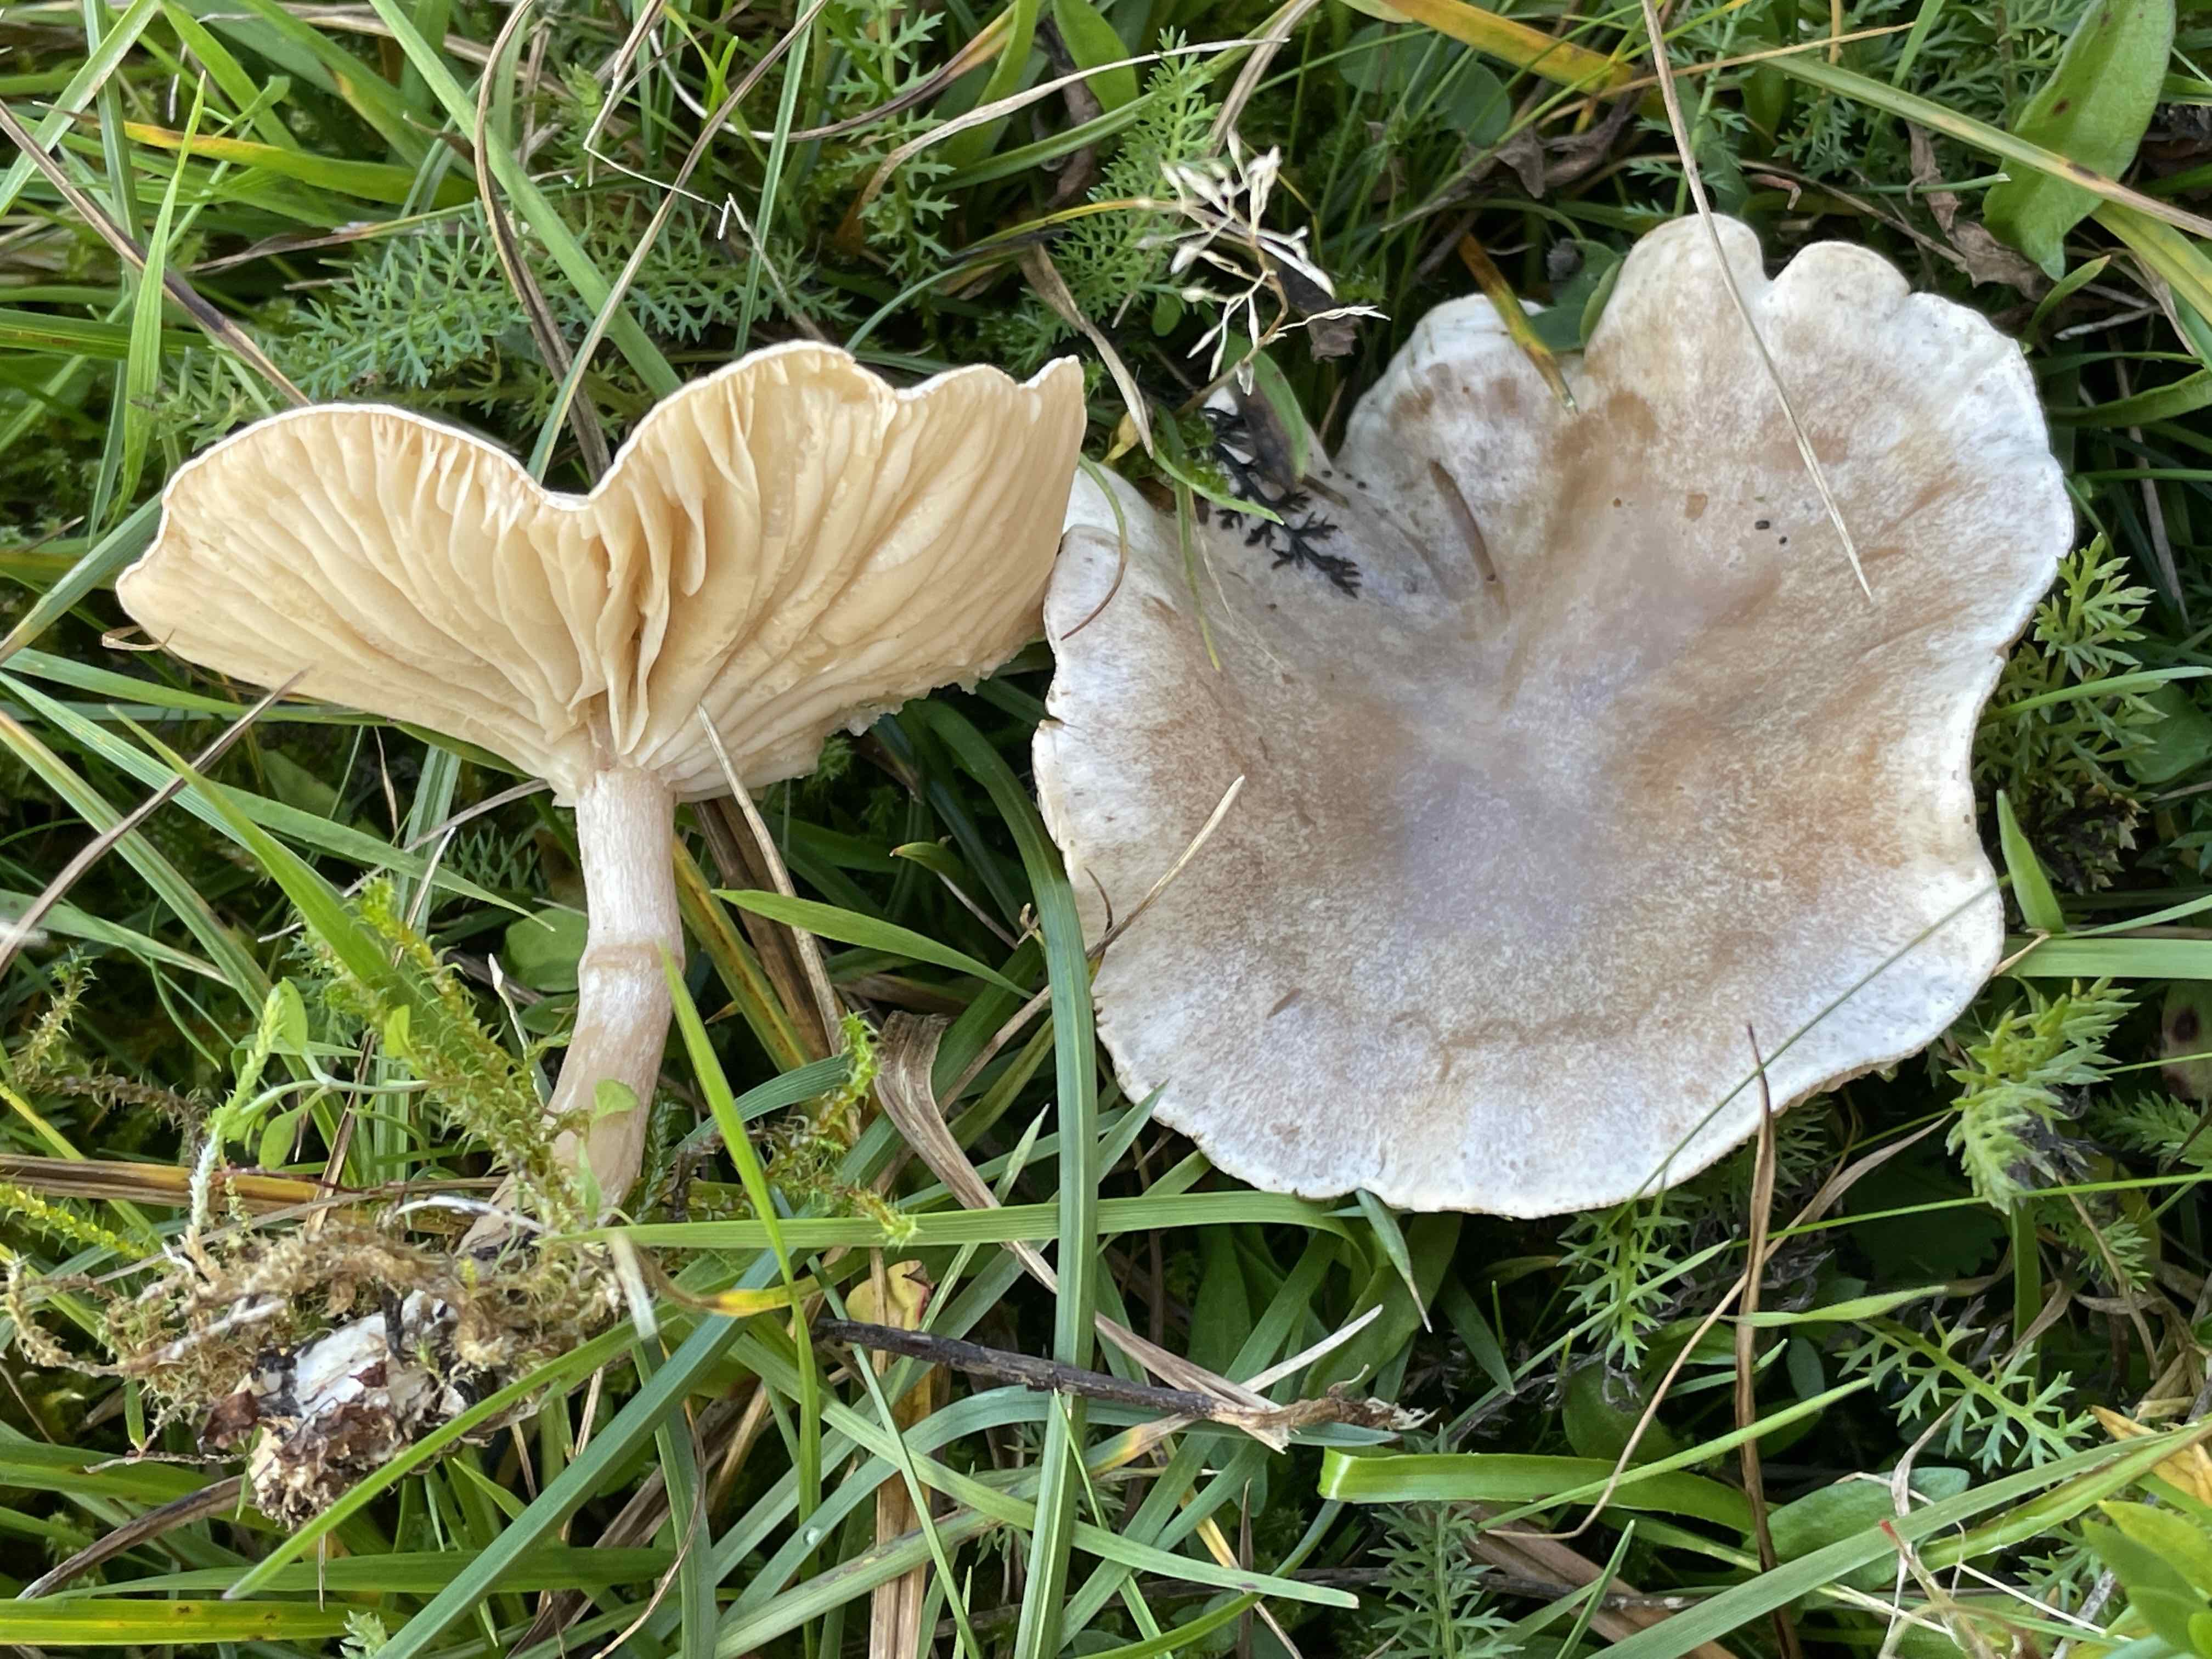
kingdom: Fungi
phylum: Basidiomycota
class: Agaricomycetes
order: Agaricales
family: Tricholomataceae
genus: Clitocybe
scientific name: Clitocybe rivulosa
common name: eng-tragthat
